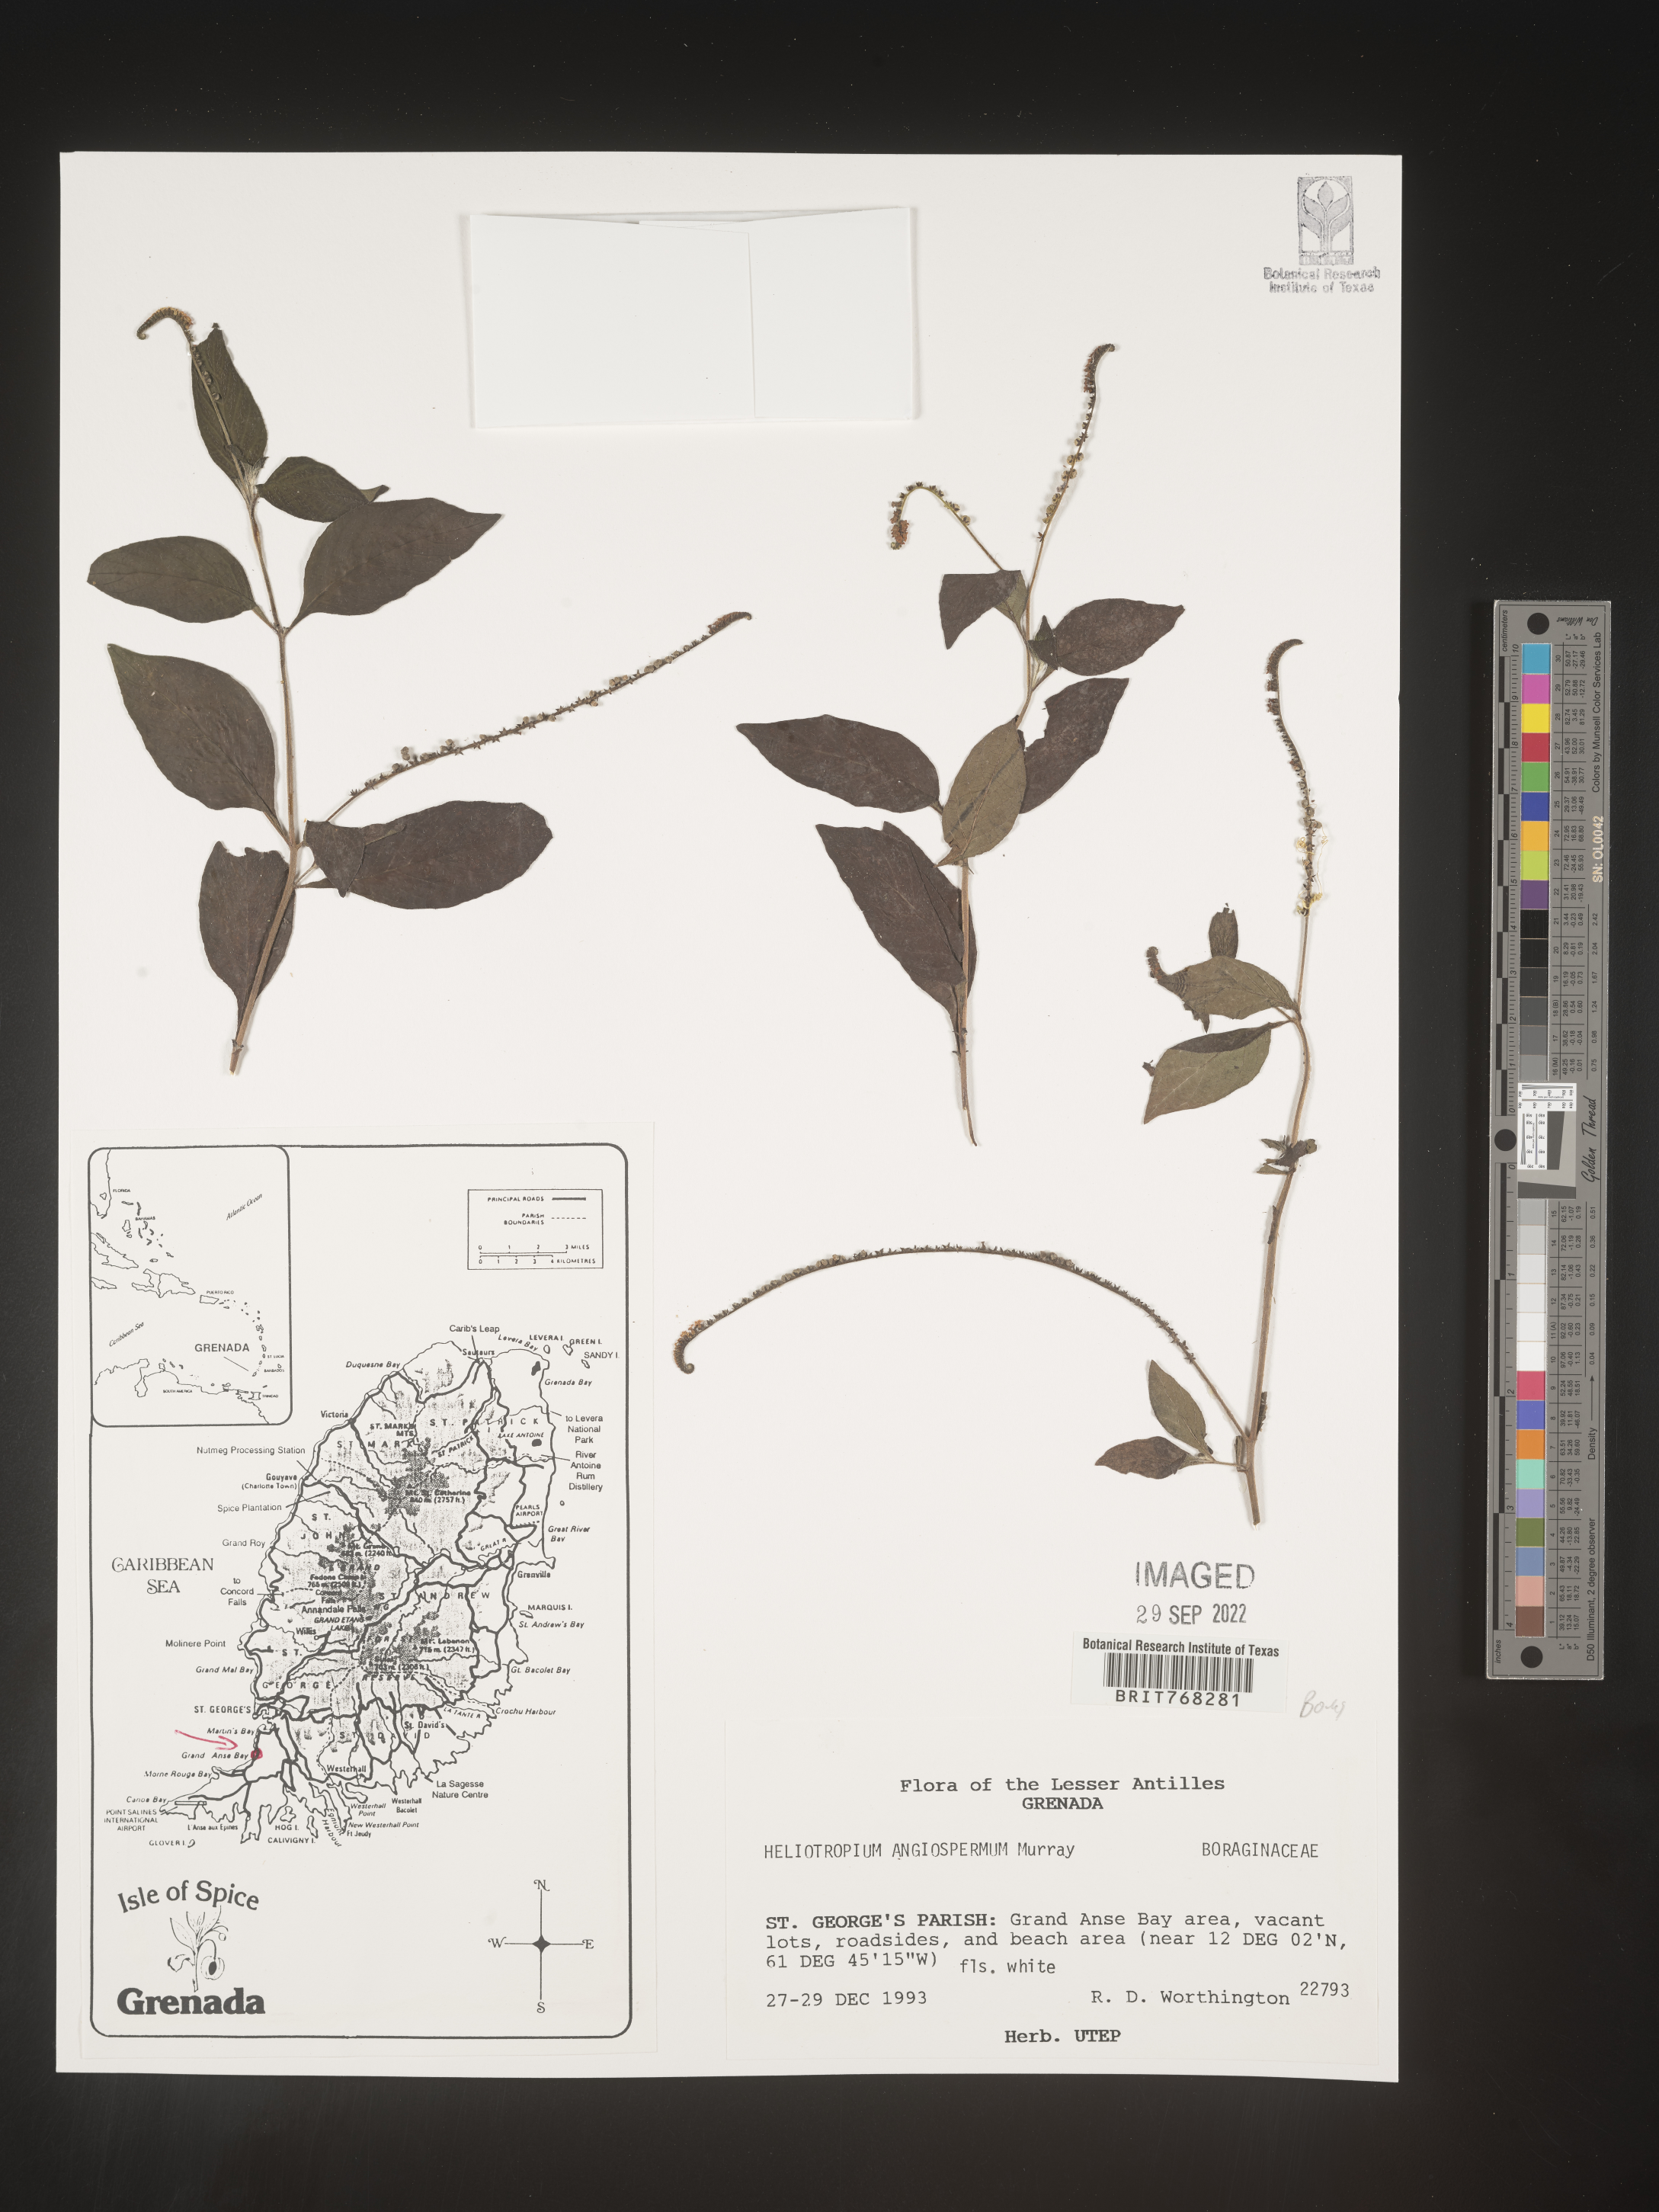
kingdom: Plantae
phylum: Tracheophyta
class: Magnoliopsida
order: Boraginales
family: Heliotropiaceae
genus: Heliotropium
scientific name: Heliotropium
